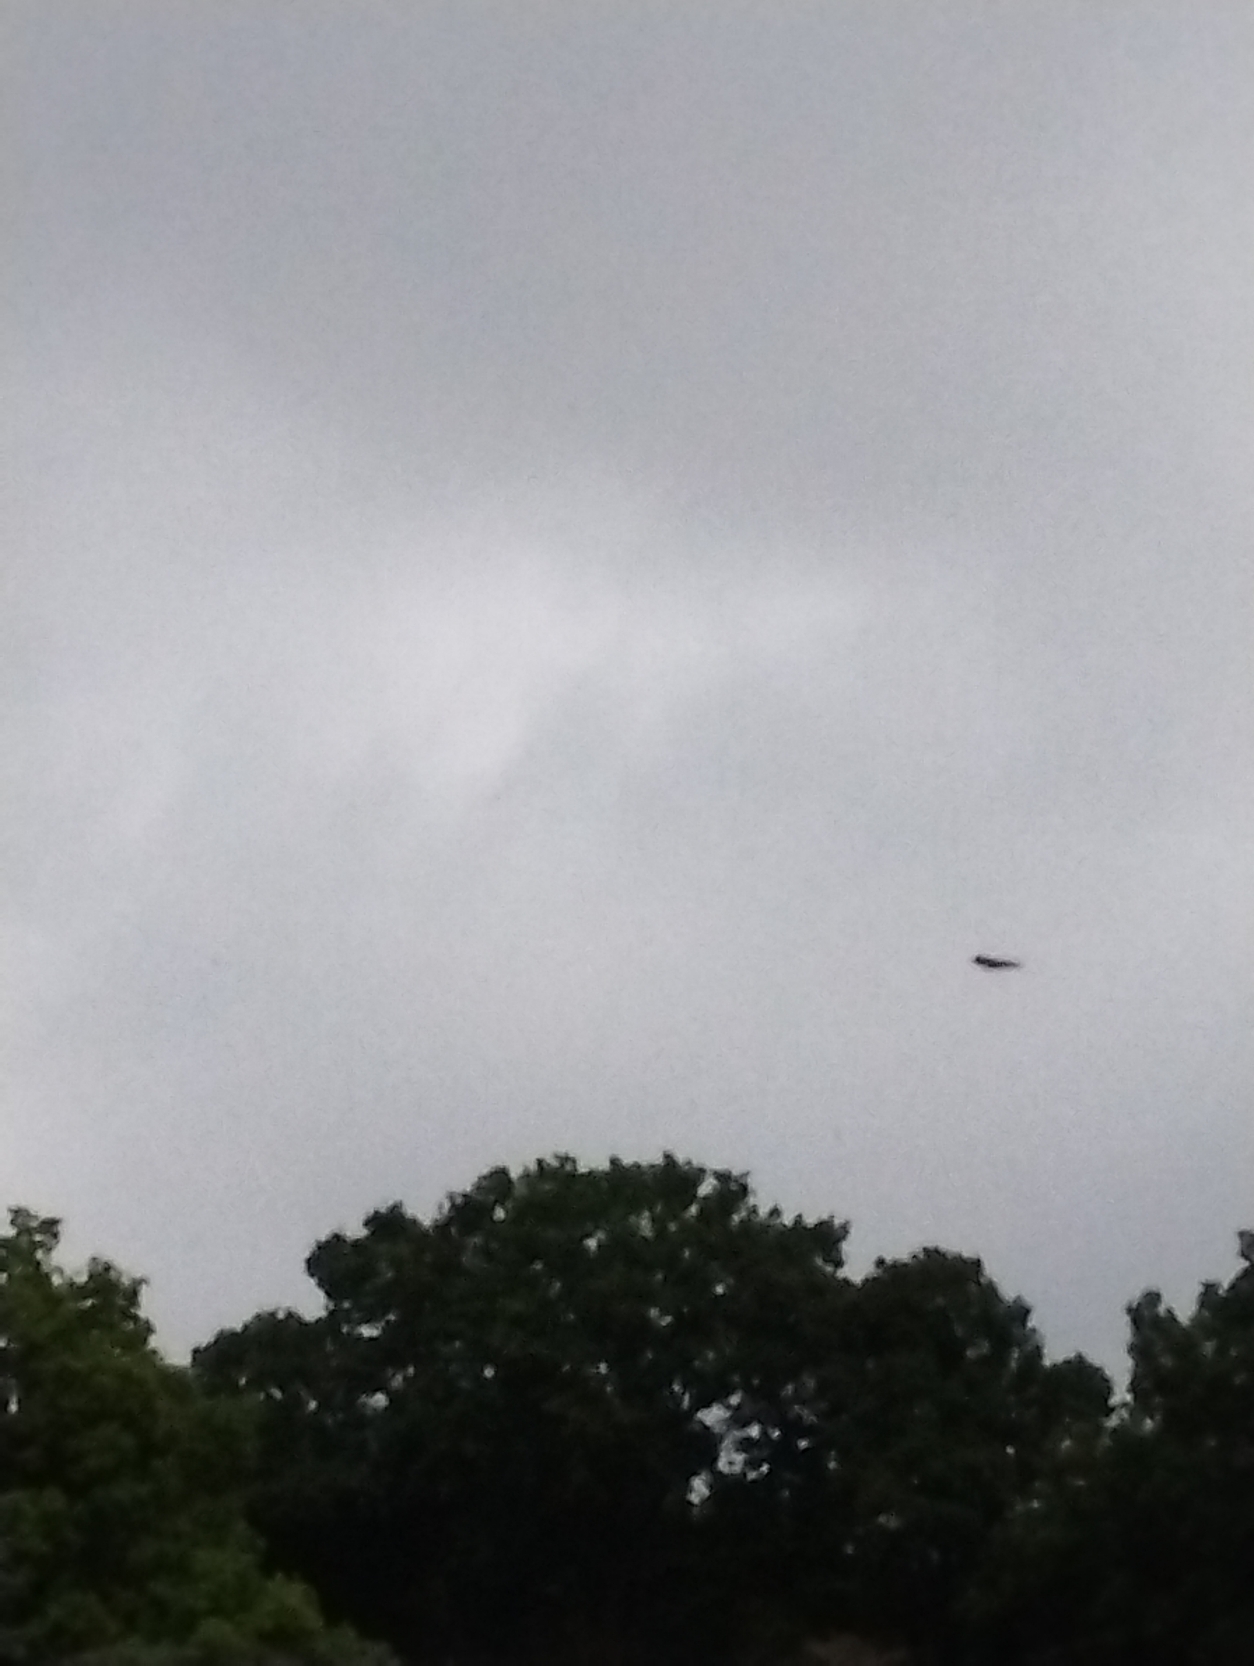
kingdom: Animalia
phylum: Chordata
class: Aves
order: Passeriformes
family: Hirundinidae
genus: Hirundo
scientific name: Hirundo rustica
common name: Landsvale
